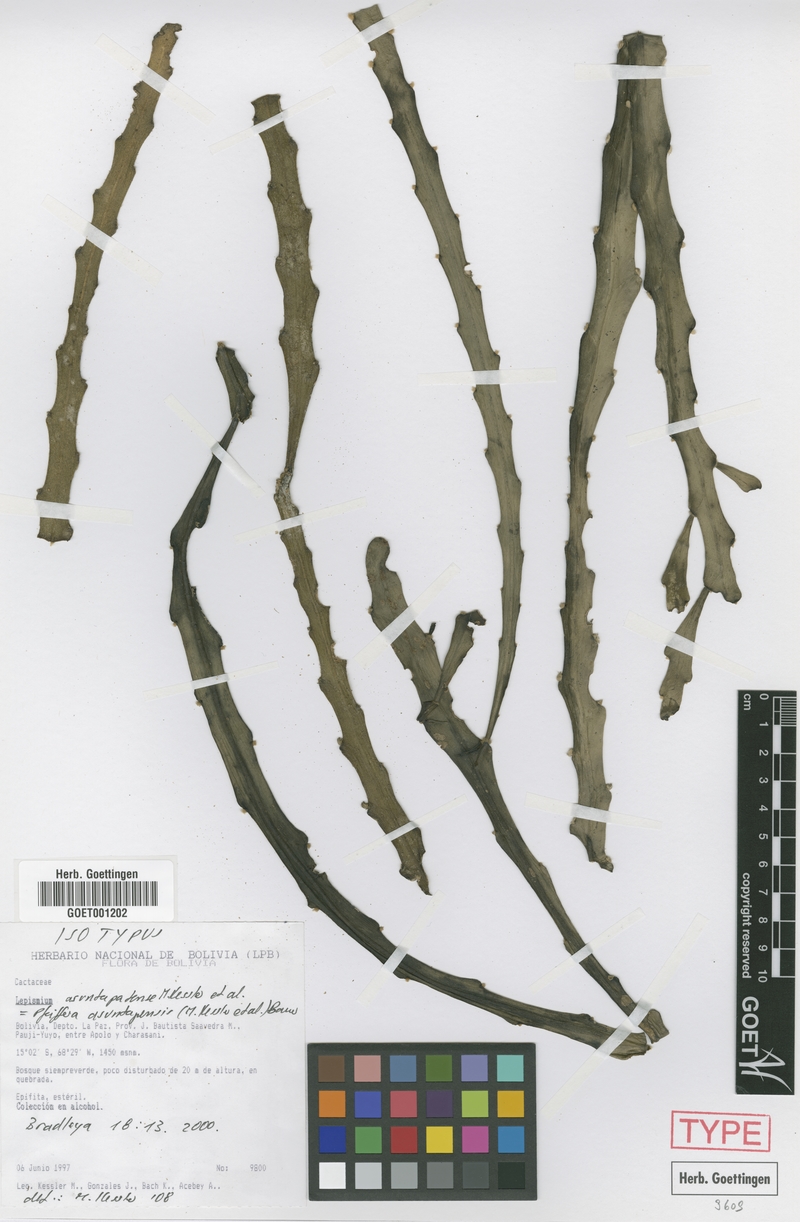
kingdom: Plantae
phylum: Tracheophyta
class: Magnoliopsida
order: Caryophyllales
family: Cactaceae
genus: Pfeiffera
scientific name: Pfeiffera asuntapatensis
